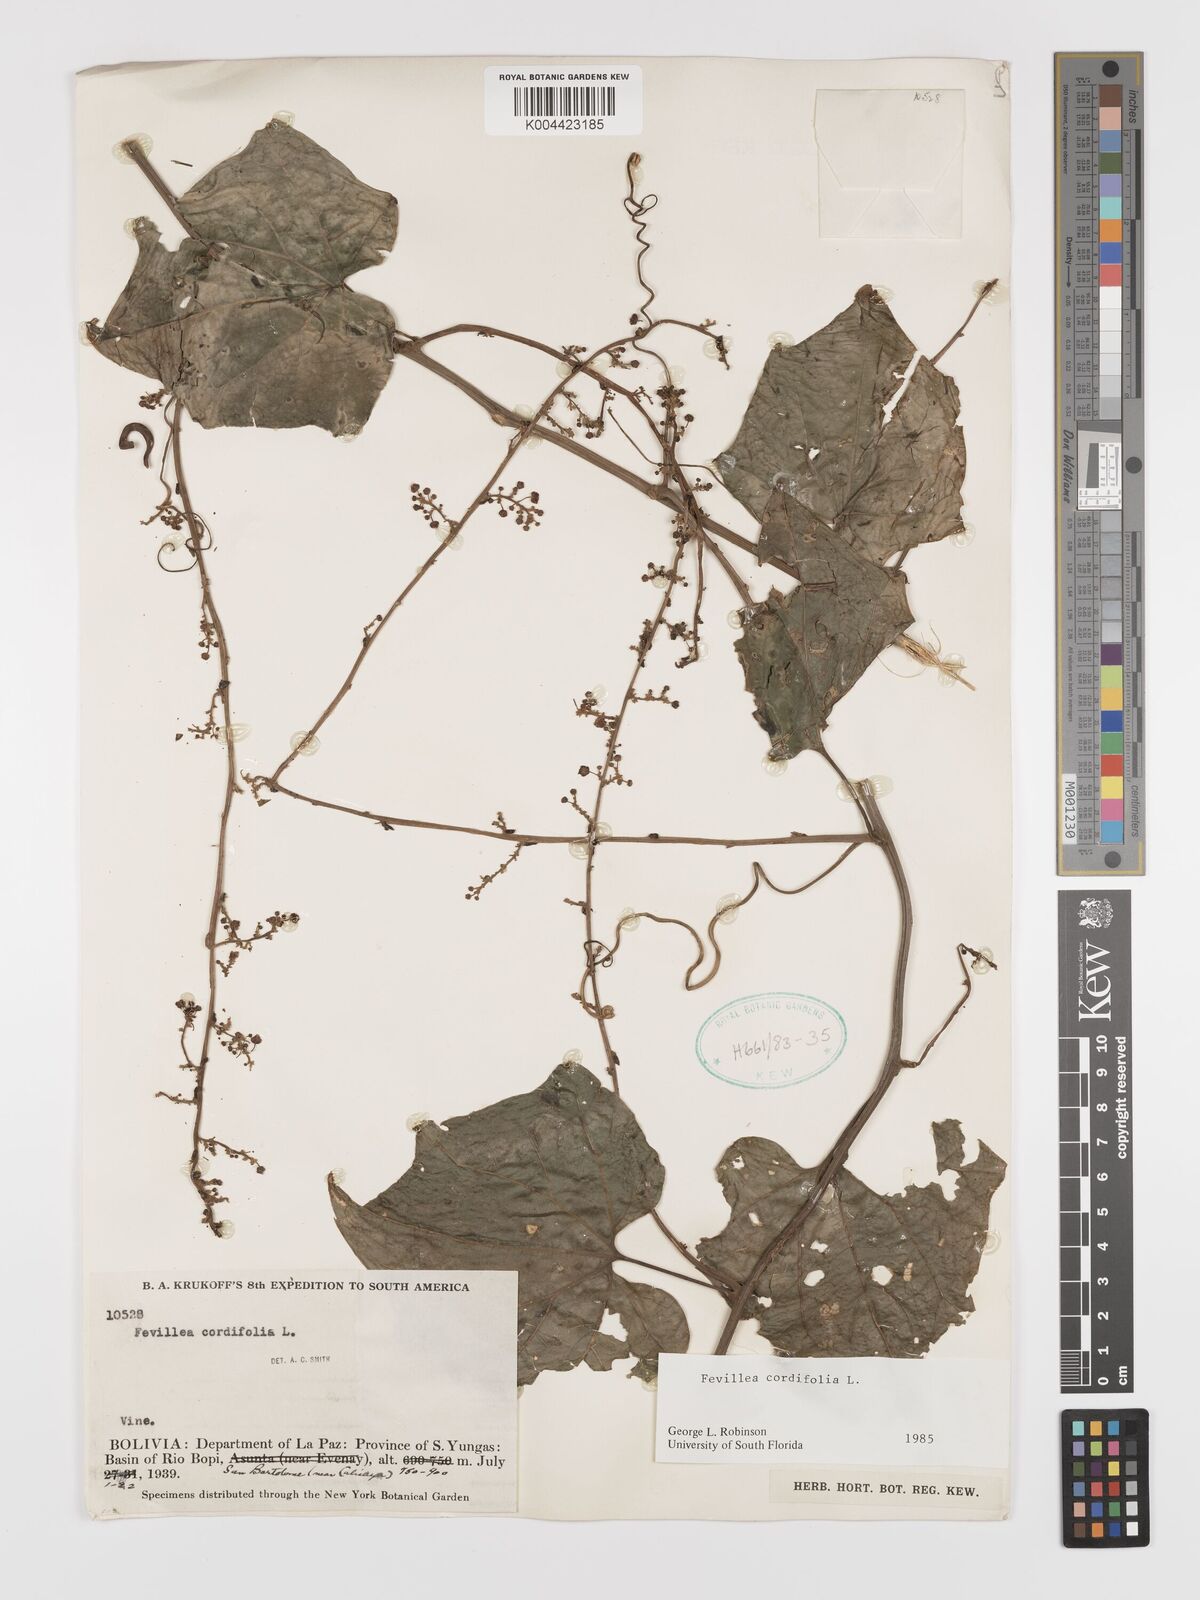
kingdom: Plantae
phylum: Tracheophyta
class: Magnoliopsida
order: Cucurbitales
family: Cucurbitaceae
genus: Fevillea
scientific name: Fevillea
